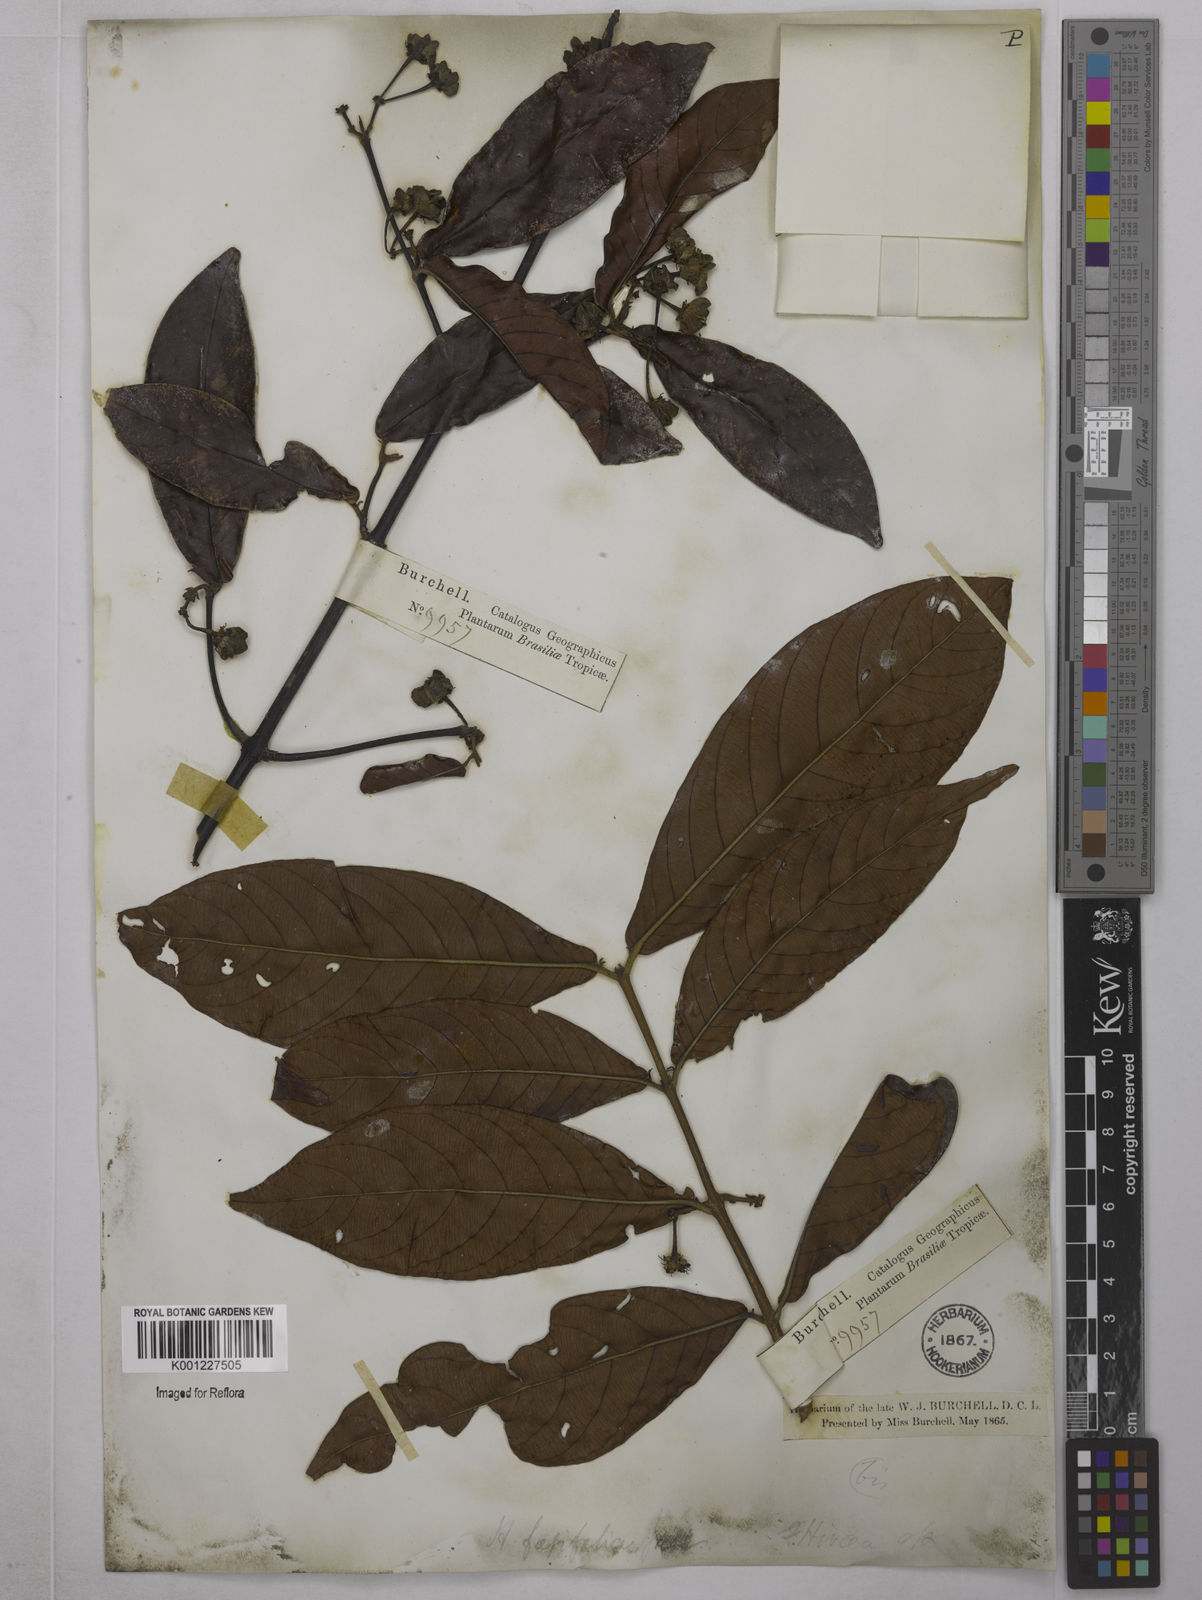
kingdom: Plantae
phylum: Tracheophyta
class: Magnoliopsida
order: Malpighiales
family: Malpighiaceae
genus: Hiraea
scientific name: Hiraea fagifolia
